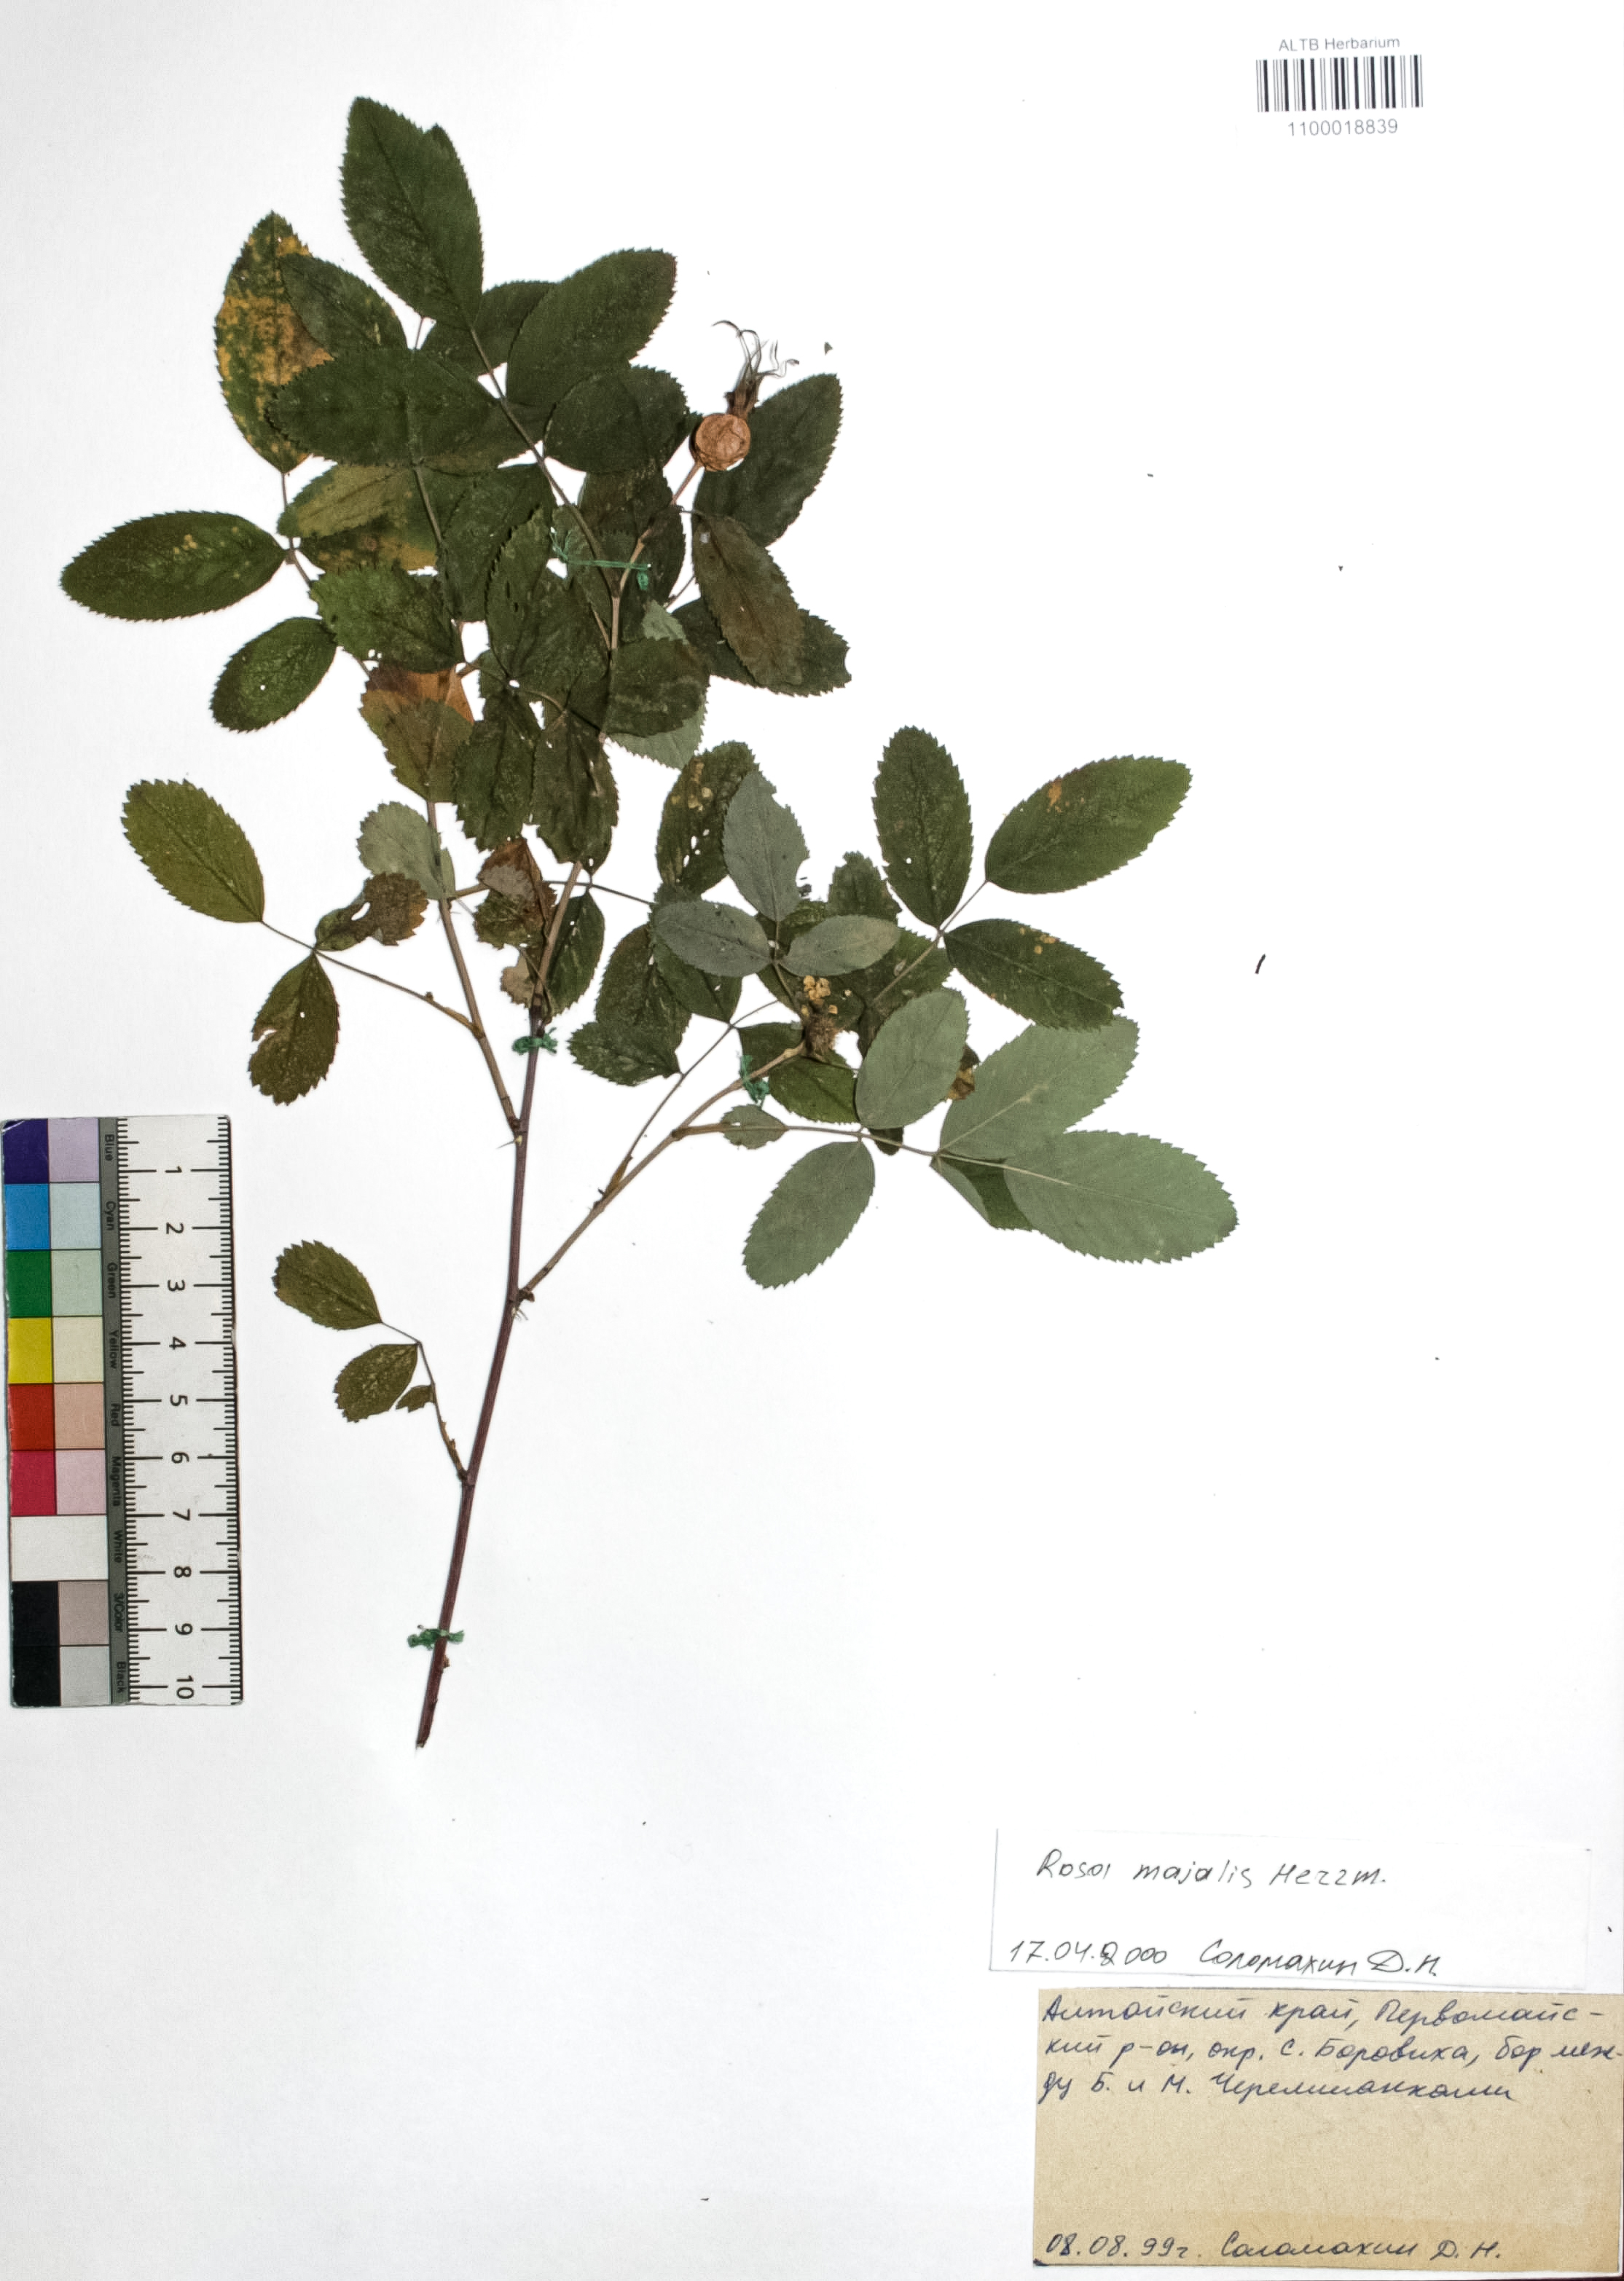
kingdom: Plantae
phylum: Tracheophyta
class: Magnoliopsida
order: Rosales
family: Rosaceae
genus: Rosa
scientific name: Rosa majalis
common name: Cinnamon rose
